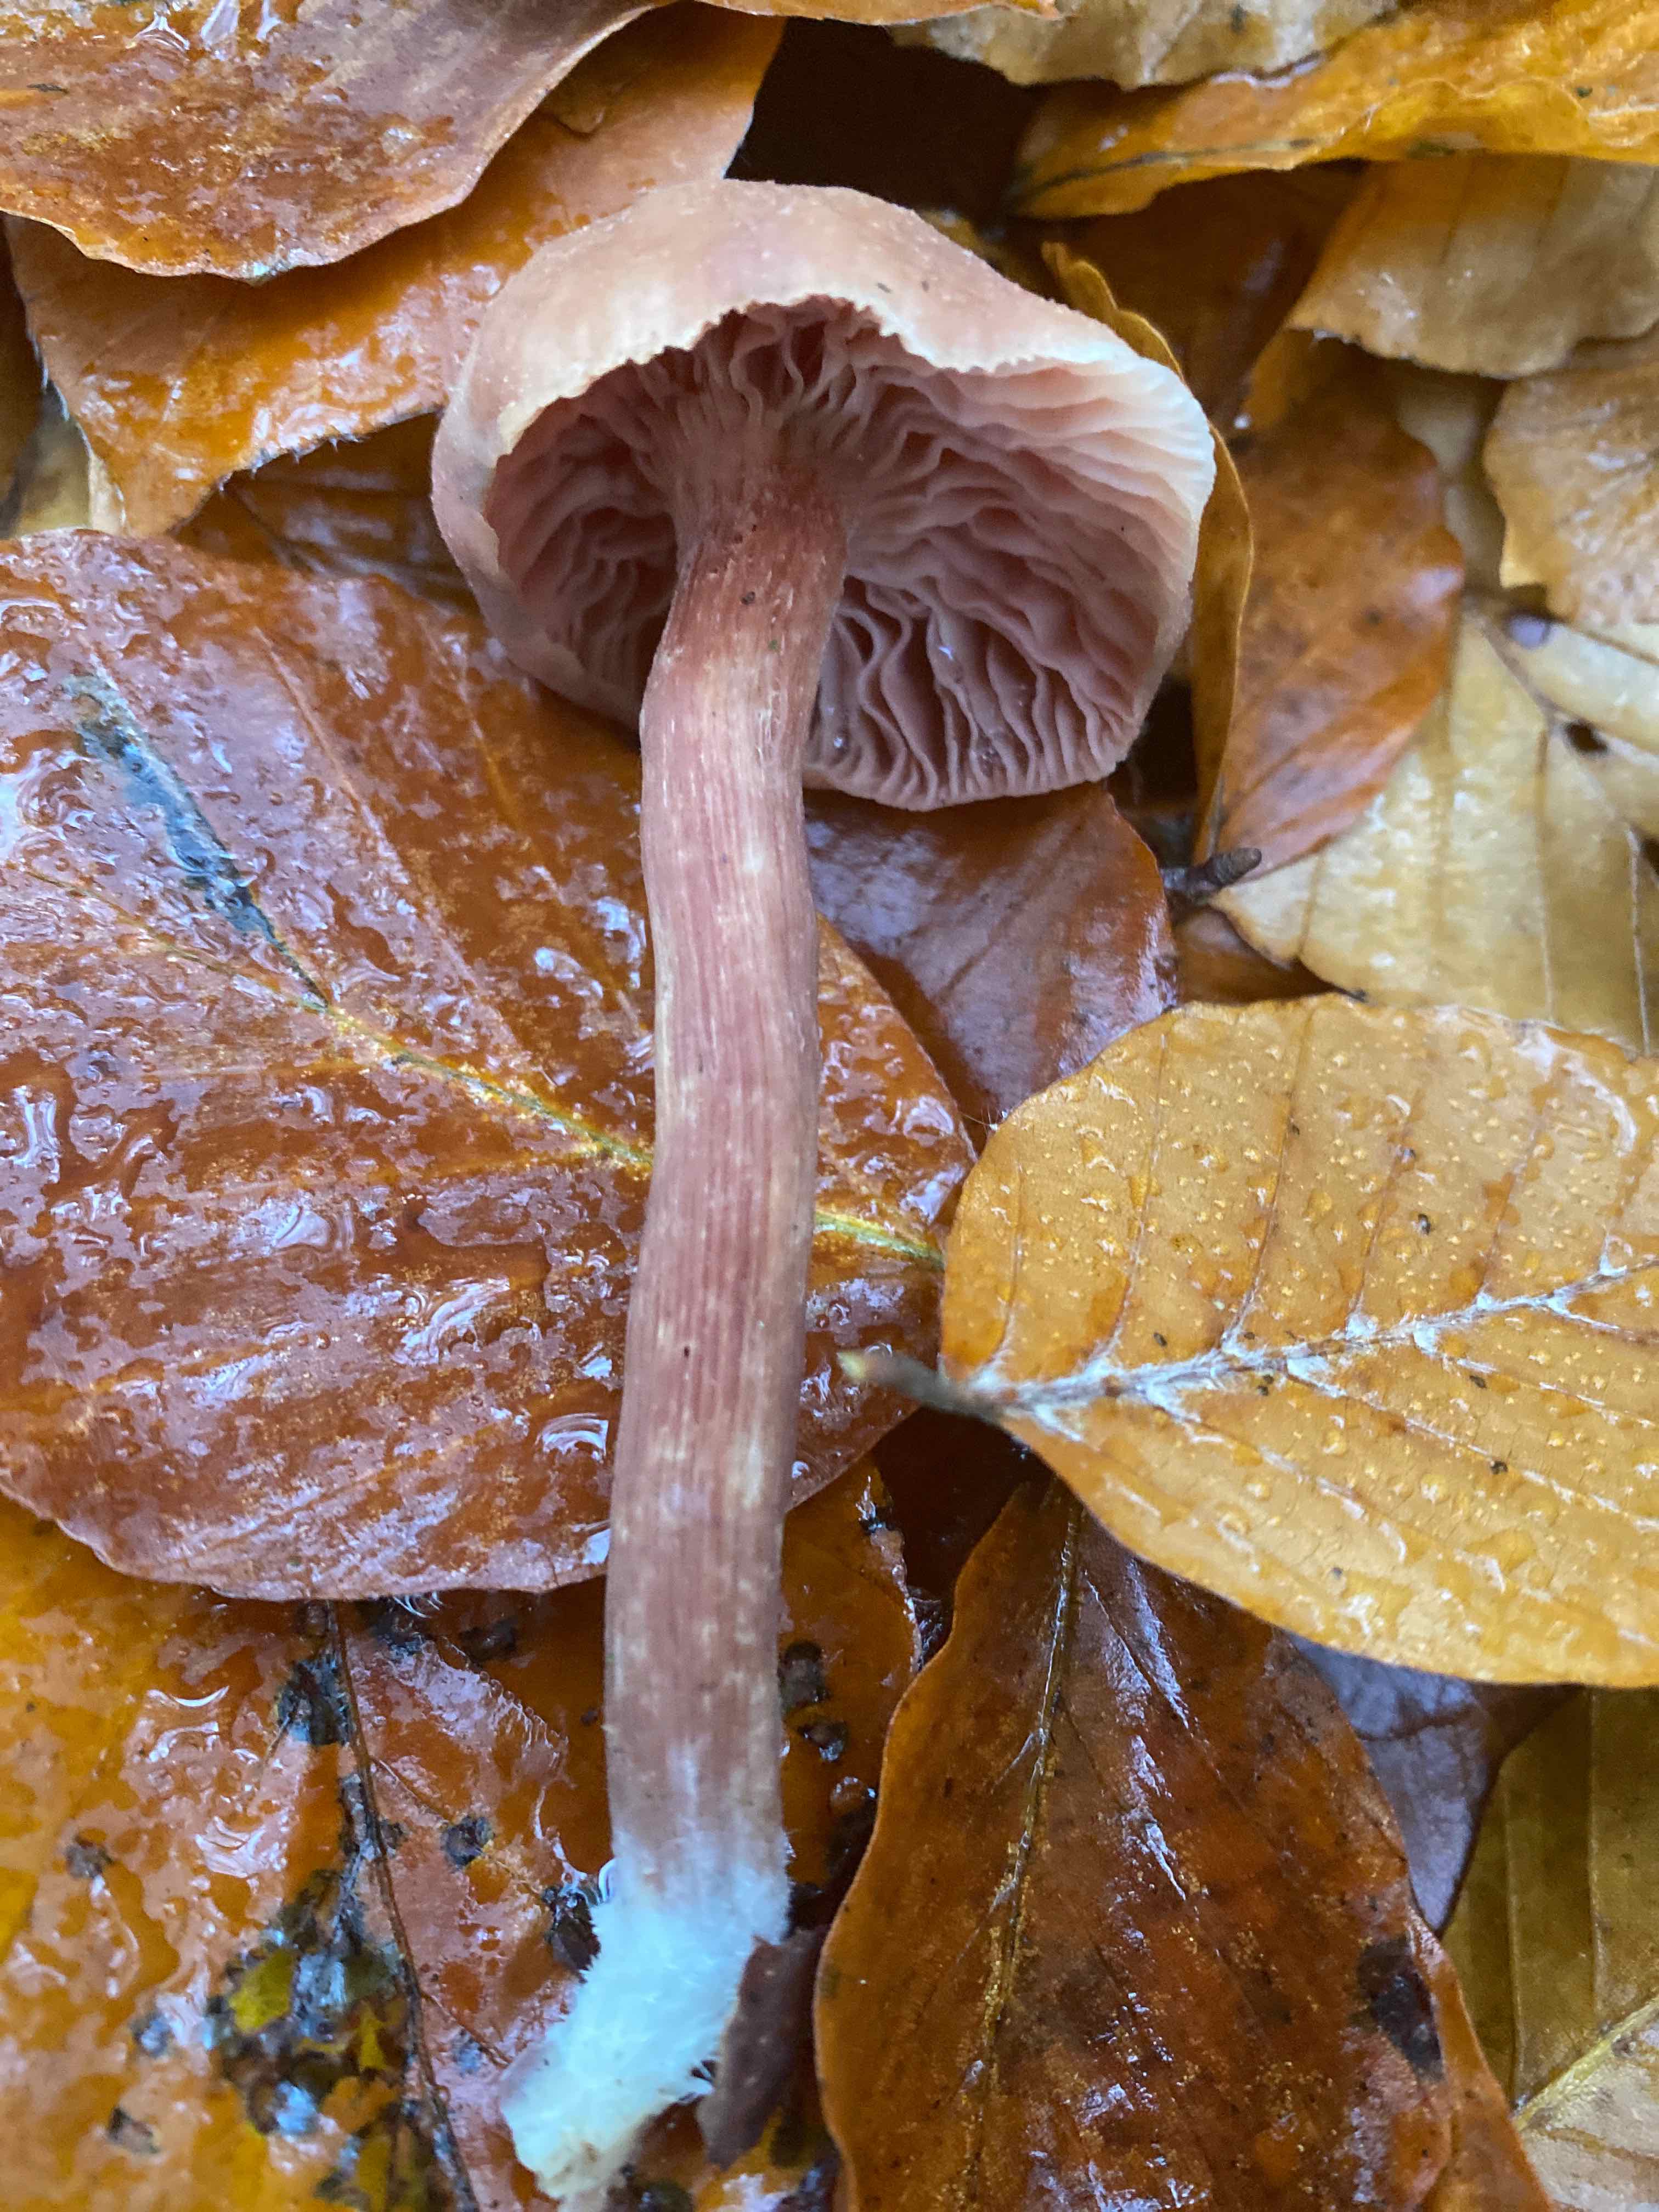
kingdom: Fungi
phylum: Basidiomycota
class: Agaricomycetes
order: Agaricales
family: Hydnangiaceae
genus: Laccaria
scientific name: Laccaria
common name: ametysthat
